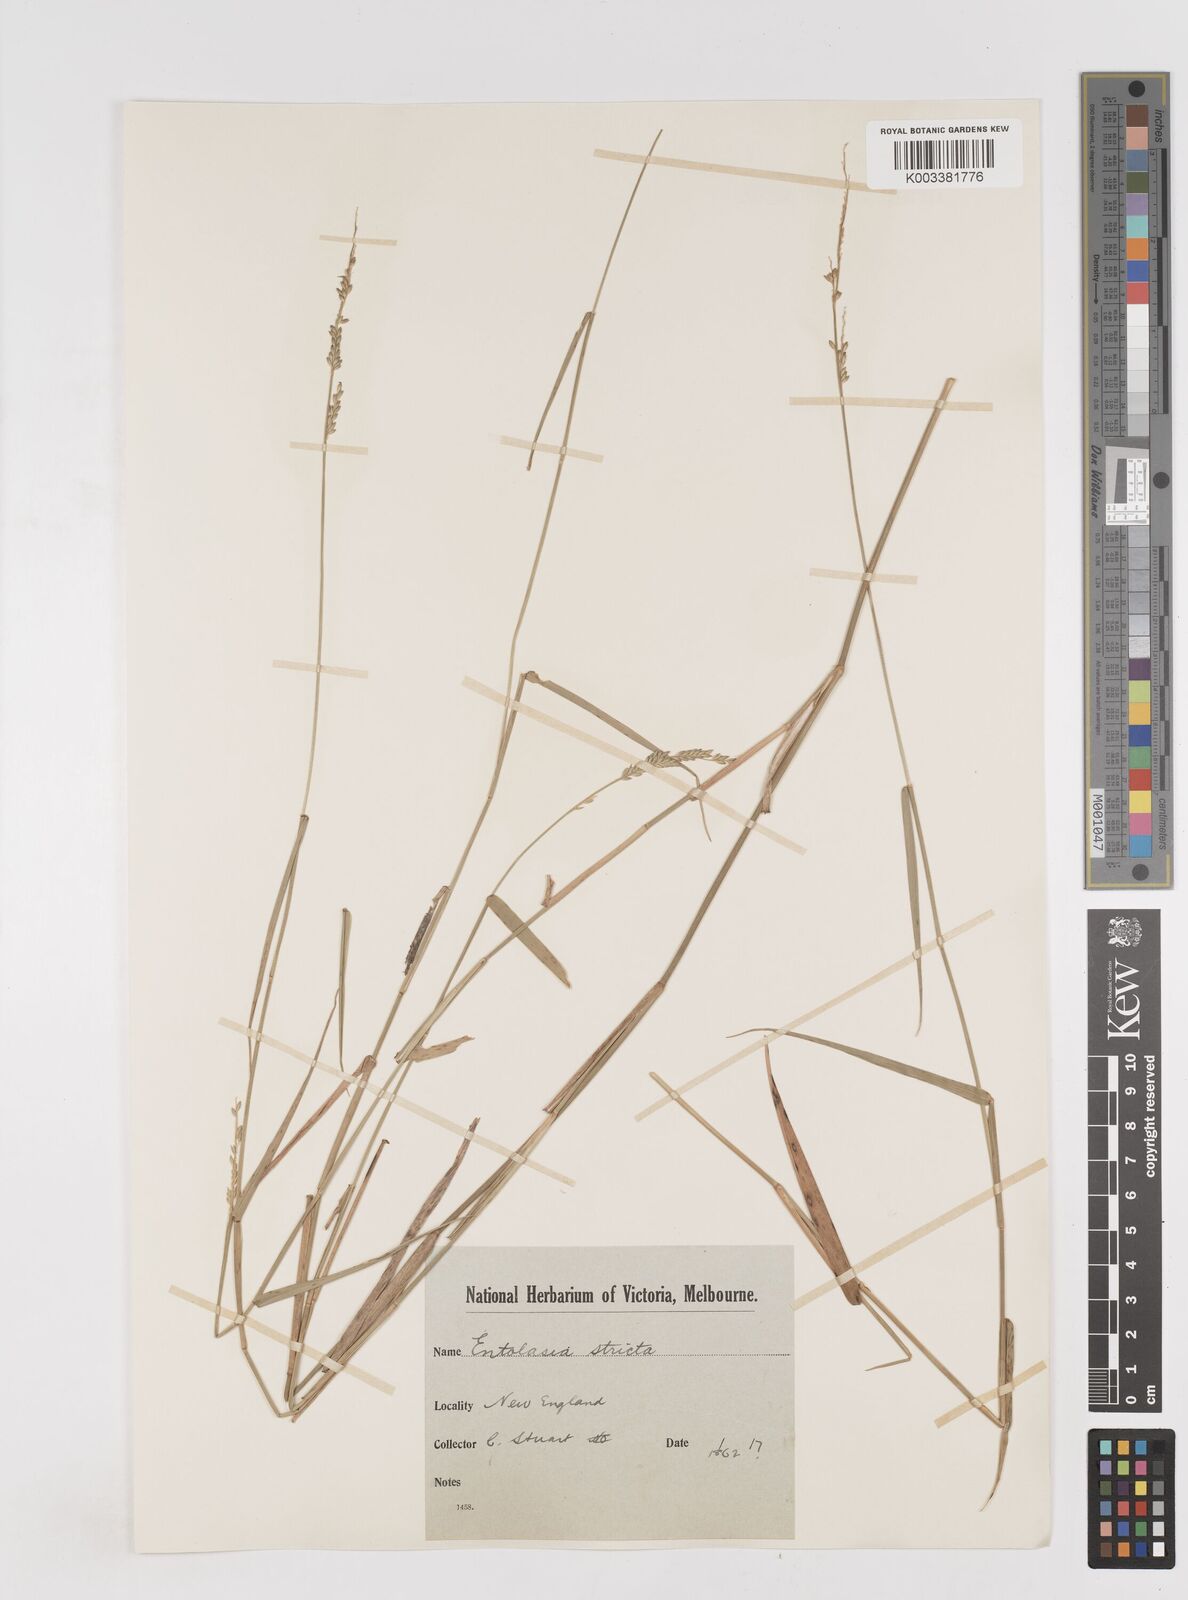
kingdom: Plantae
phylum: Tracheophyta
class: Liliopsida
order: Poales
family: Poaceae
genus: Entolasia
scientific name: Entolasia stricta
